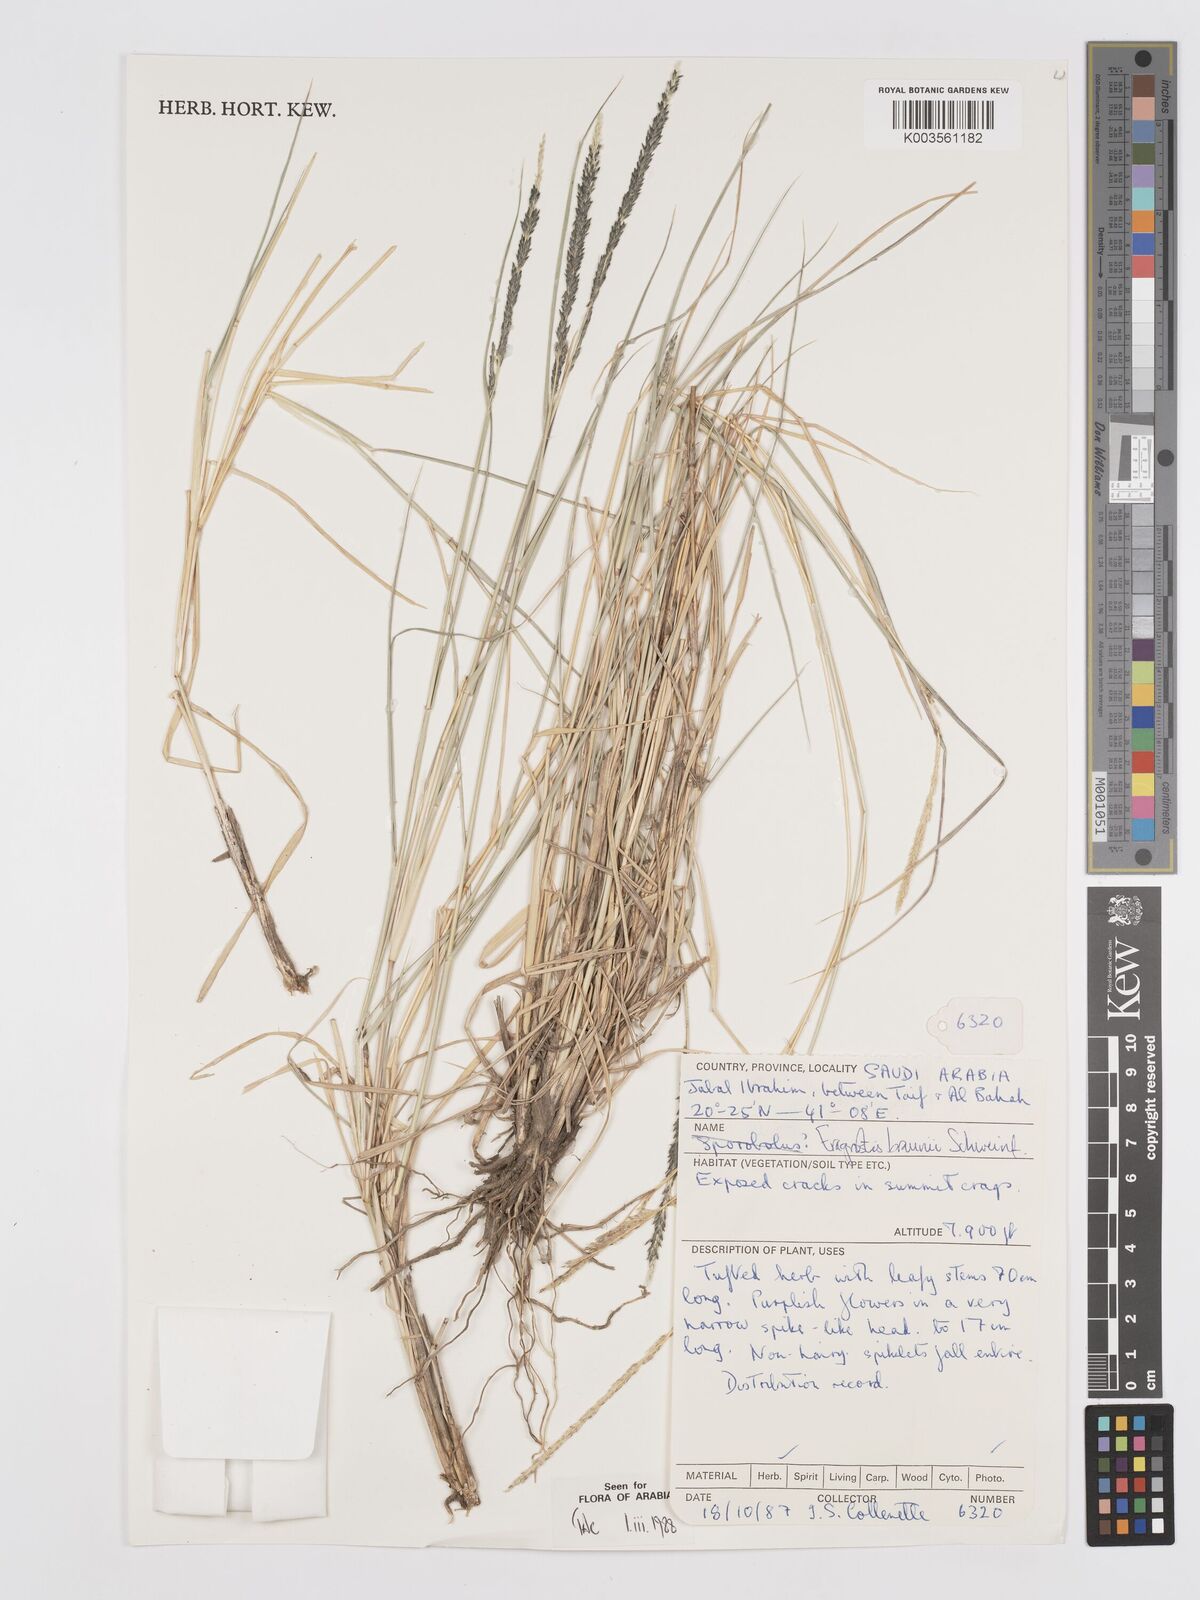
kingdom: Plantae
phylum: Tracheophyta
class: Liliopsida
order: Poales
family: Poaceae
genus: Eragrostis
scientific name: Eragrostis braunii
